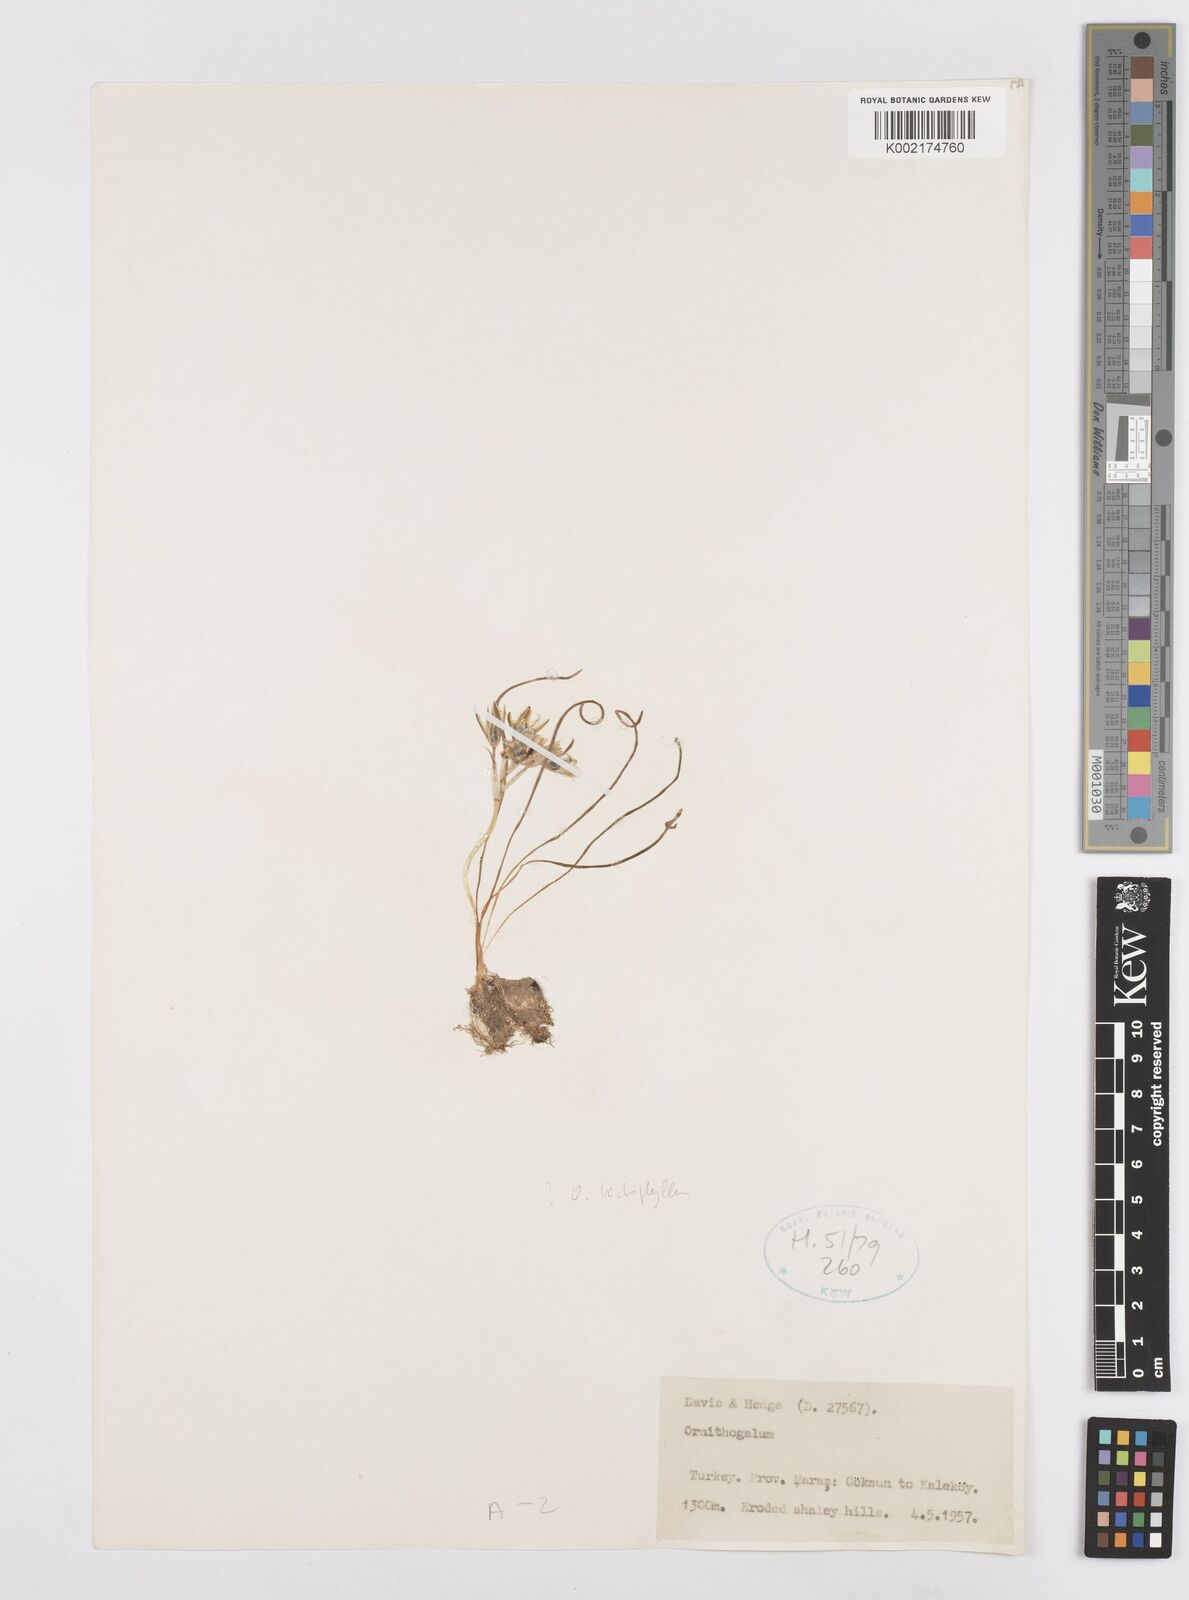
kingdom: Plantae
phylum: Tracheophyta
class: Liliopsida
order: Asparagales
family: Asparagaceae
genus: Ornithogalum
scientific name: Ornithogalum trichophyllum
